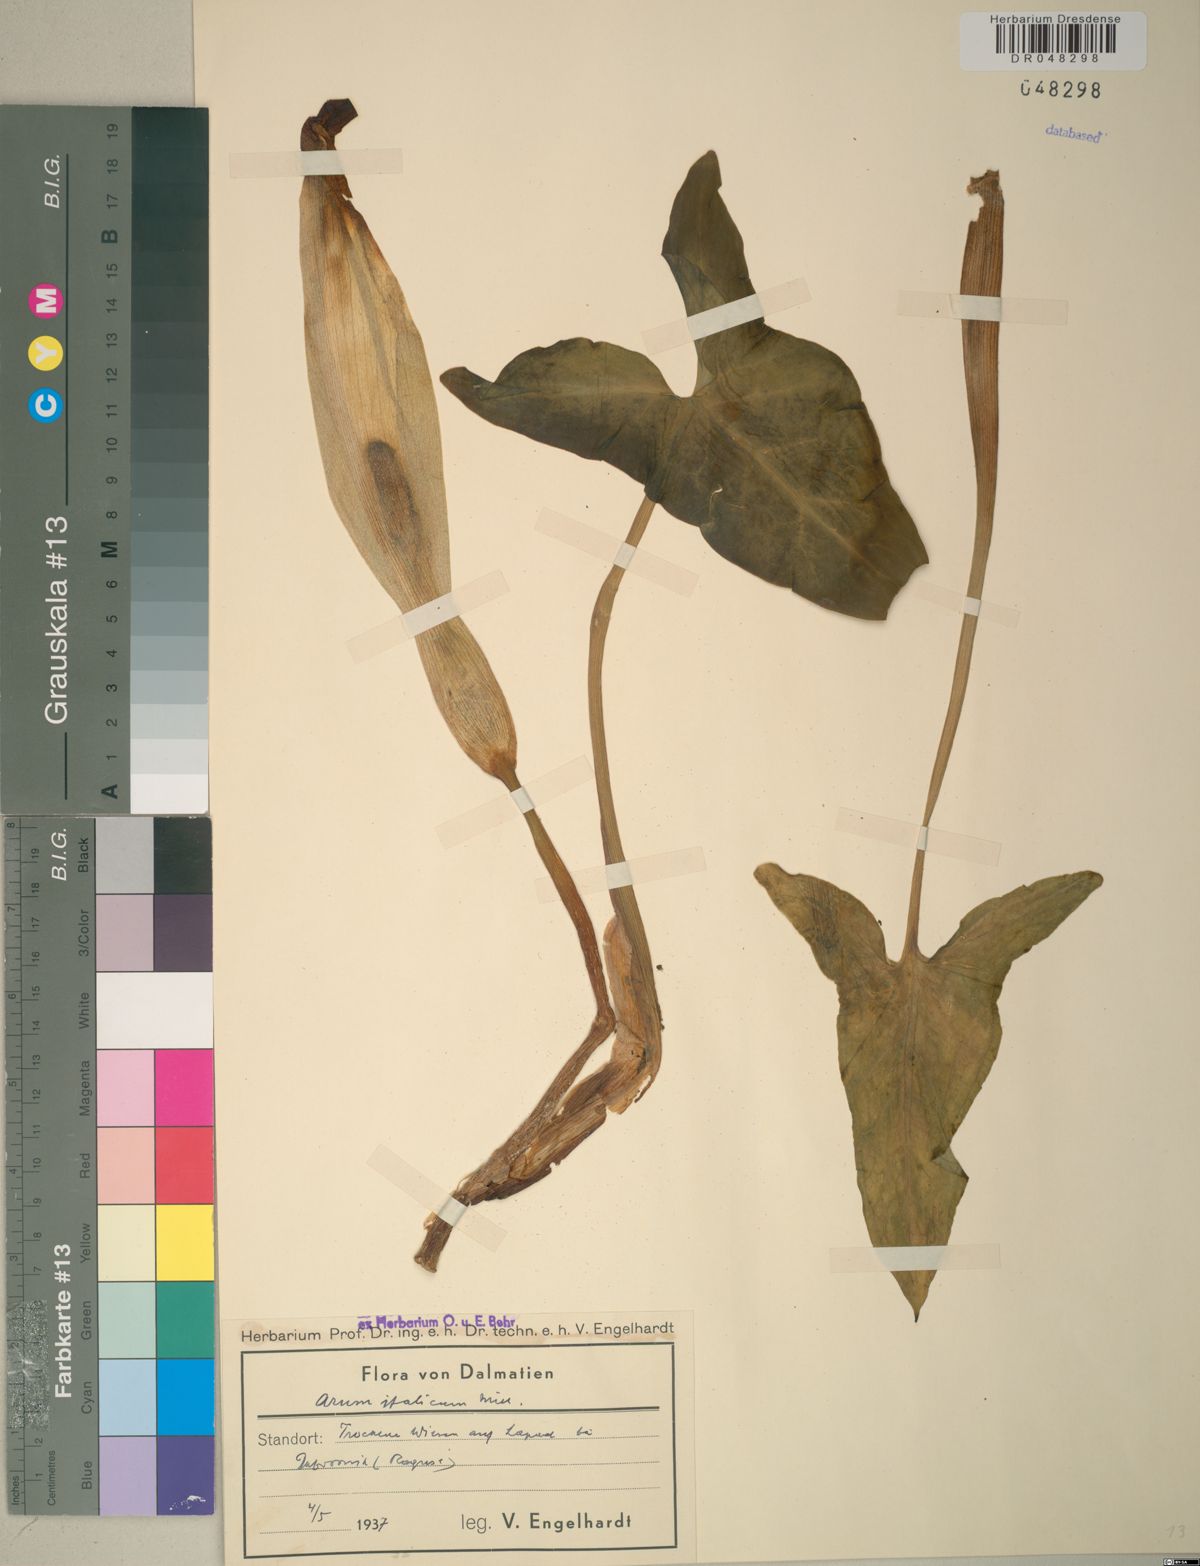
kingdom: Plantae
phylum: Tracheophyta
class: Liliopsida
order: Alismatales
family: Araceae
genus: Arum
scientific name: Arum italicum
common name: Italian lords-and-ladies
